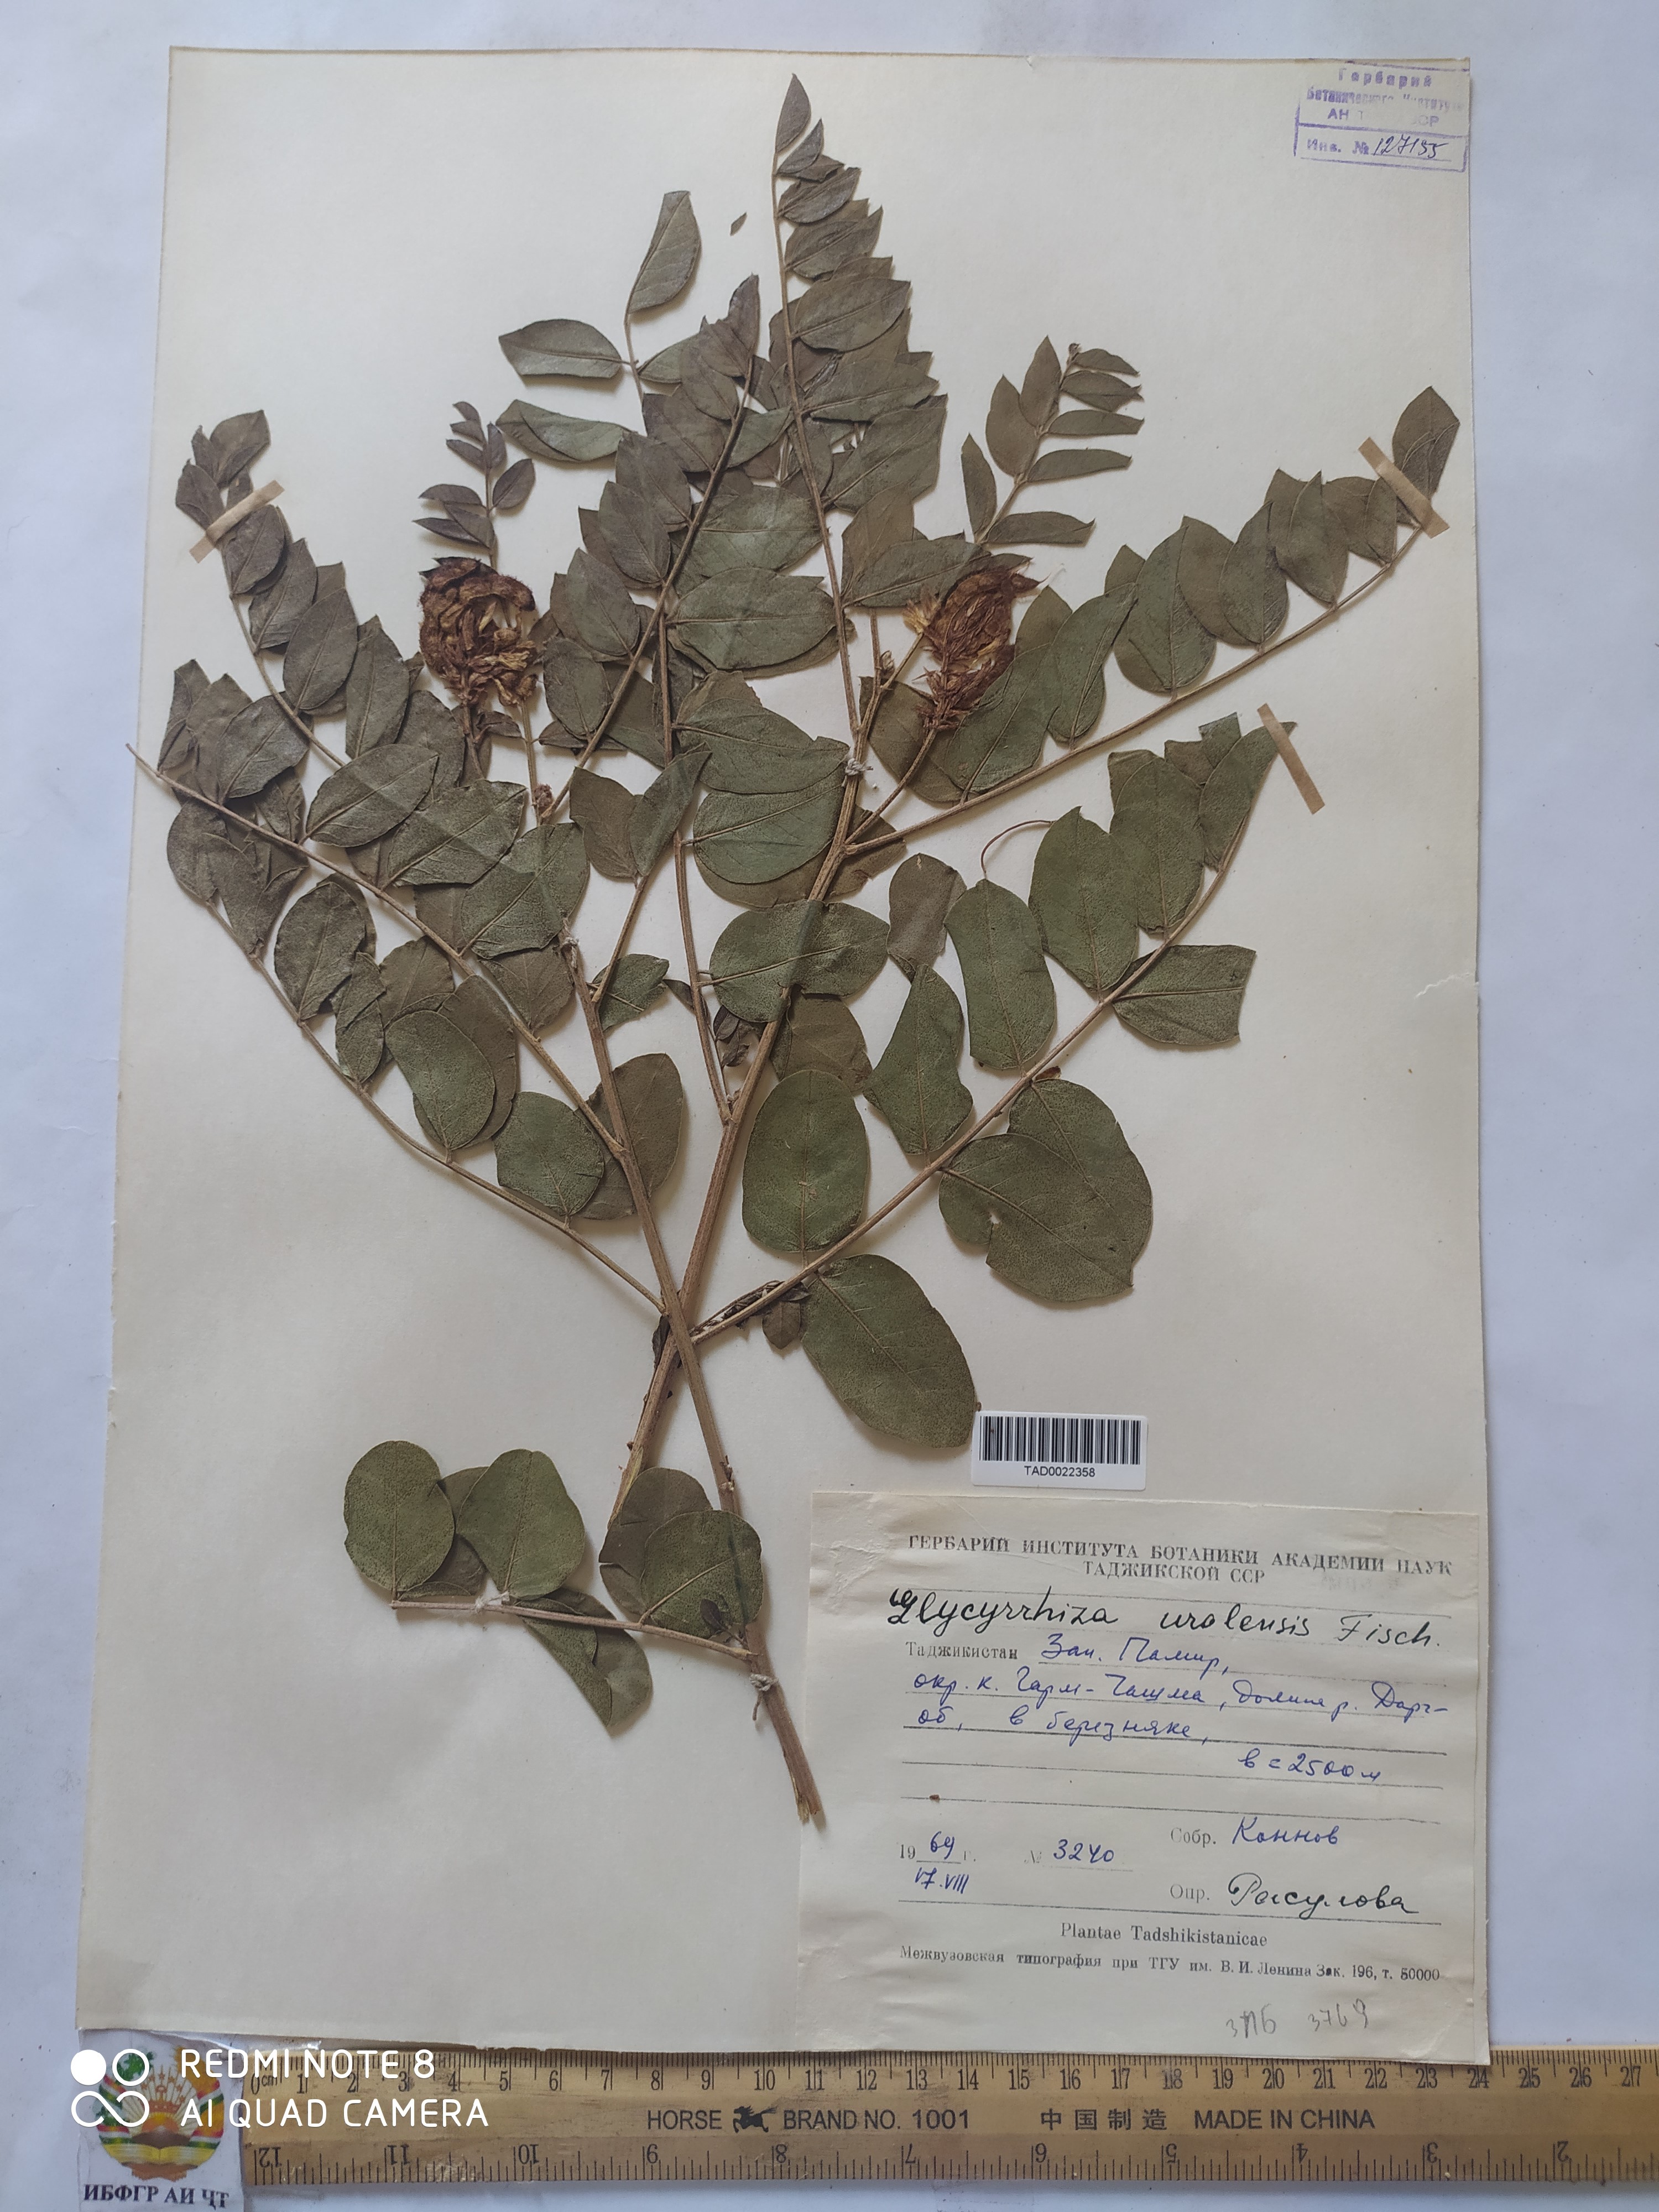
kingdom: Plantae
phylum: Tracheophyta
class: Magnoliopsida
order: Fabales
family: Fabaceae
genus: Glycyrrhiza
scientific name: Glycyrrhiza uralensis
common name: Chinese licorice
